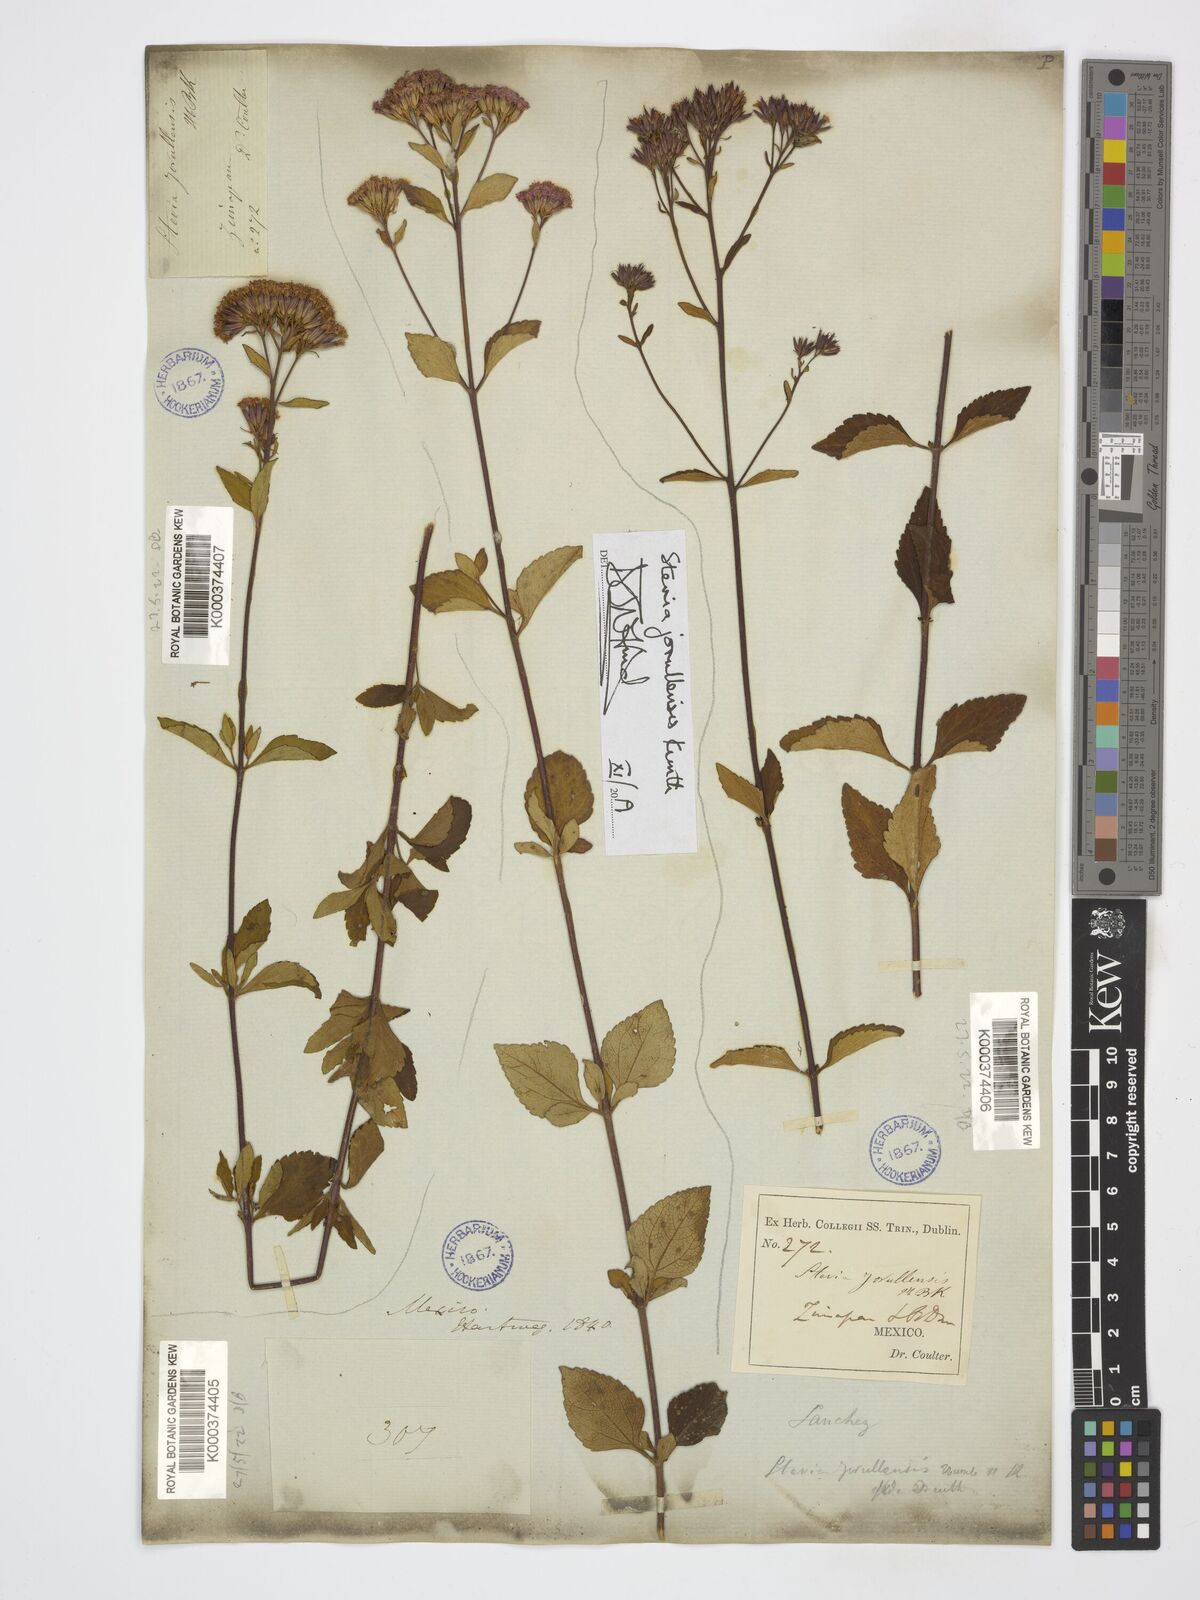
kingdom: Plantae
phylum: Tracheophyta
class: Magnoliopsida
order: Asterales
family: Asteraceae
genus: Stevia
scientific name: Stevia jorullensis
